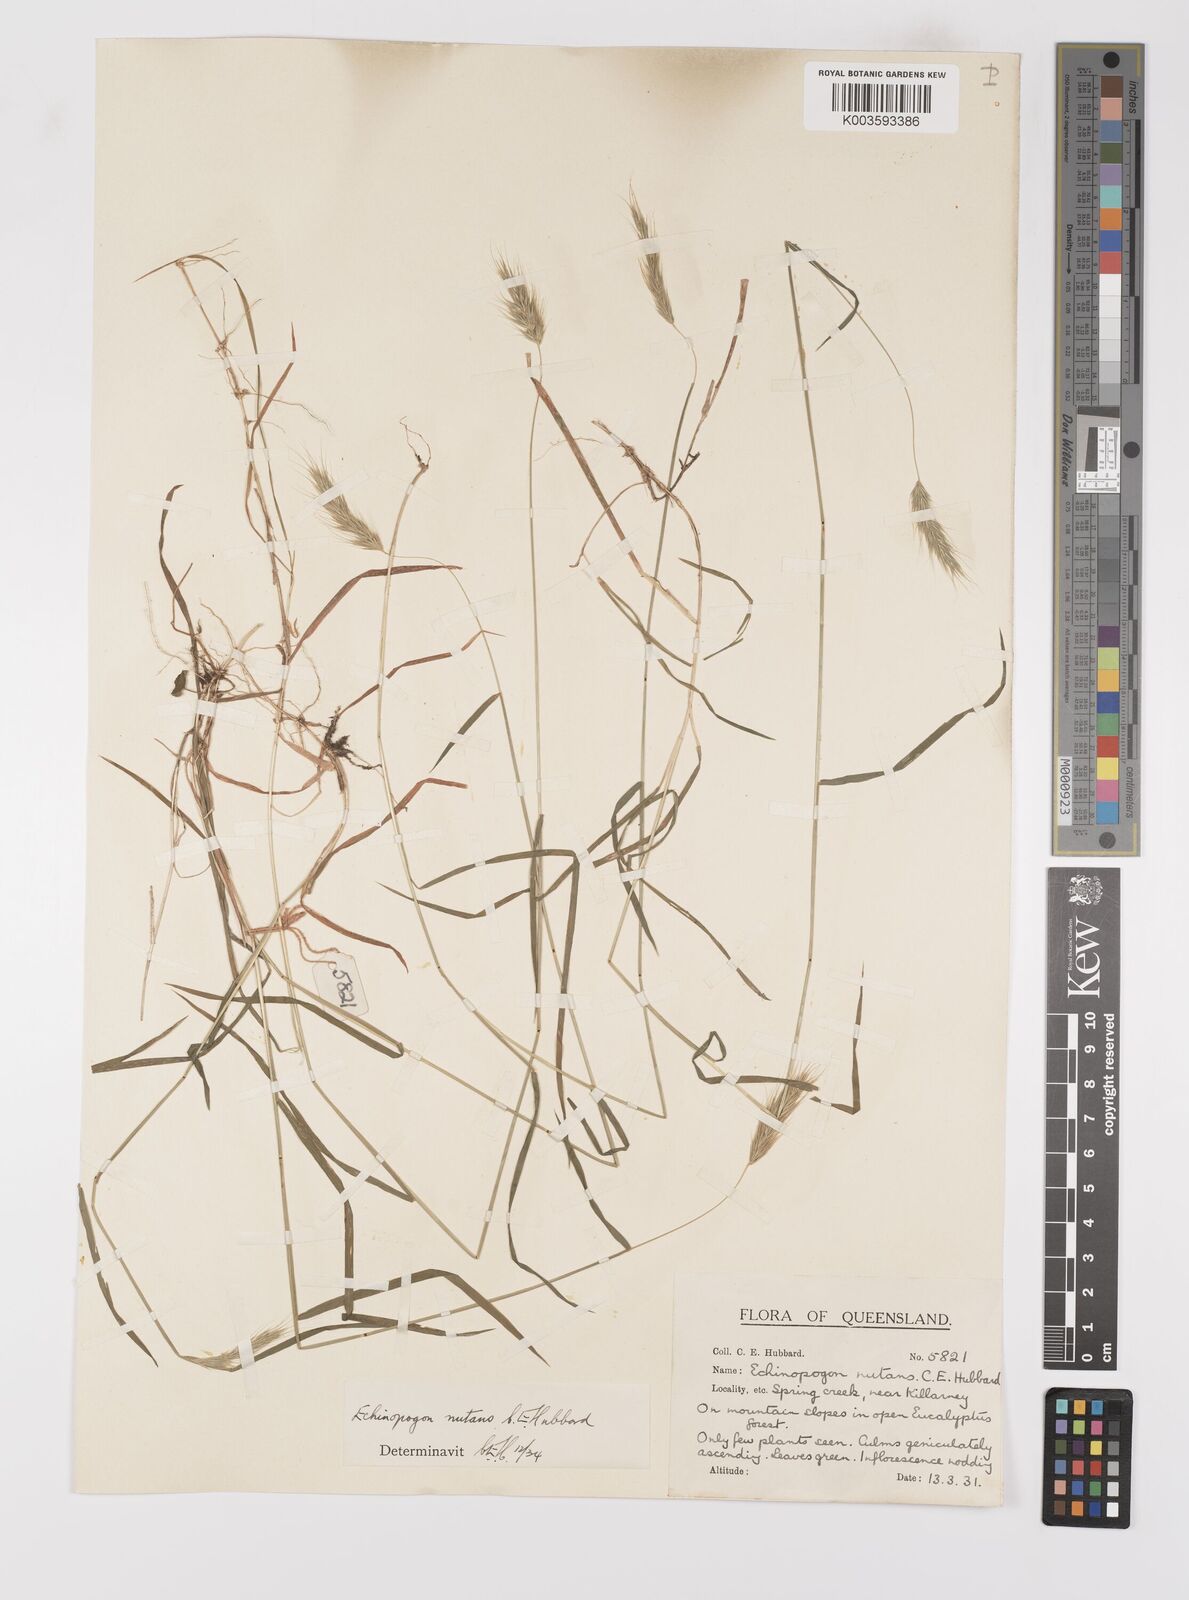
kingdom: Plantae
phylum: Tracheophyta
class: Liliopsida
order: Poales
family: Poaceae
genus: Echinopogon
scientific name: Echinopogon nutans
